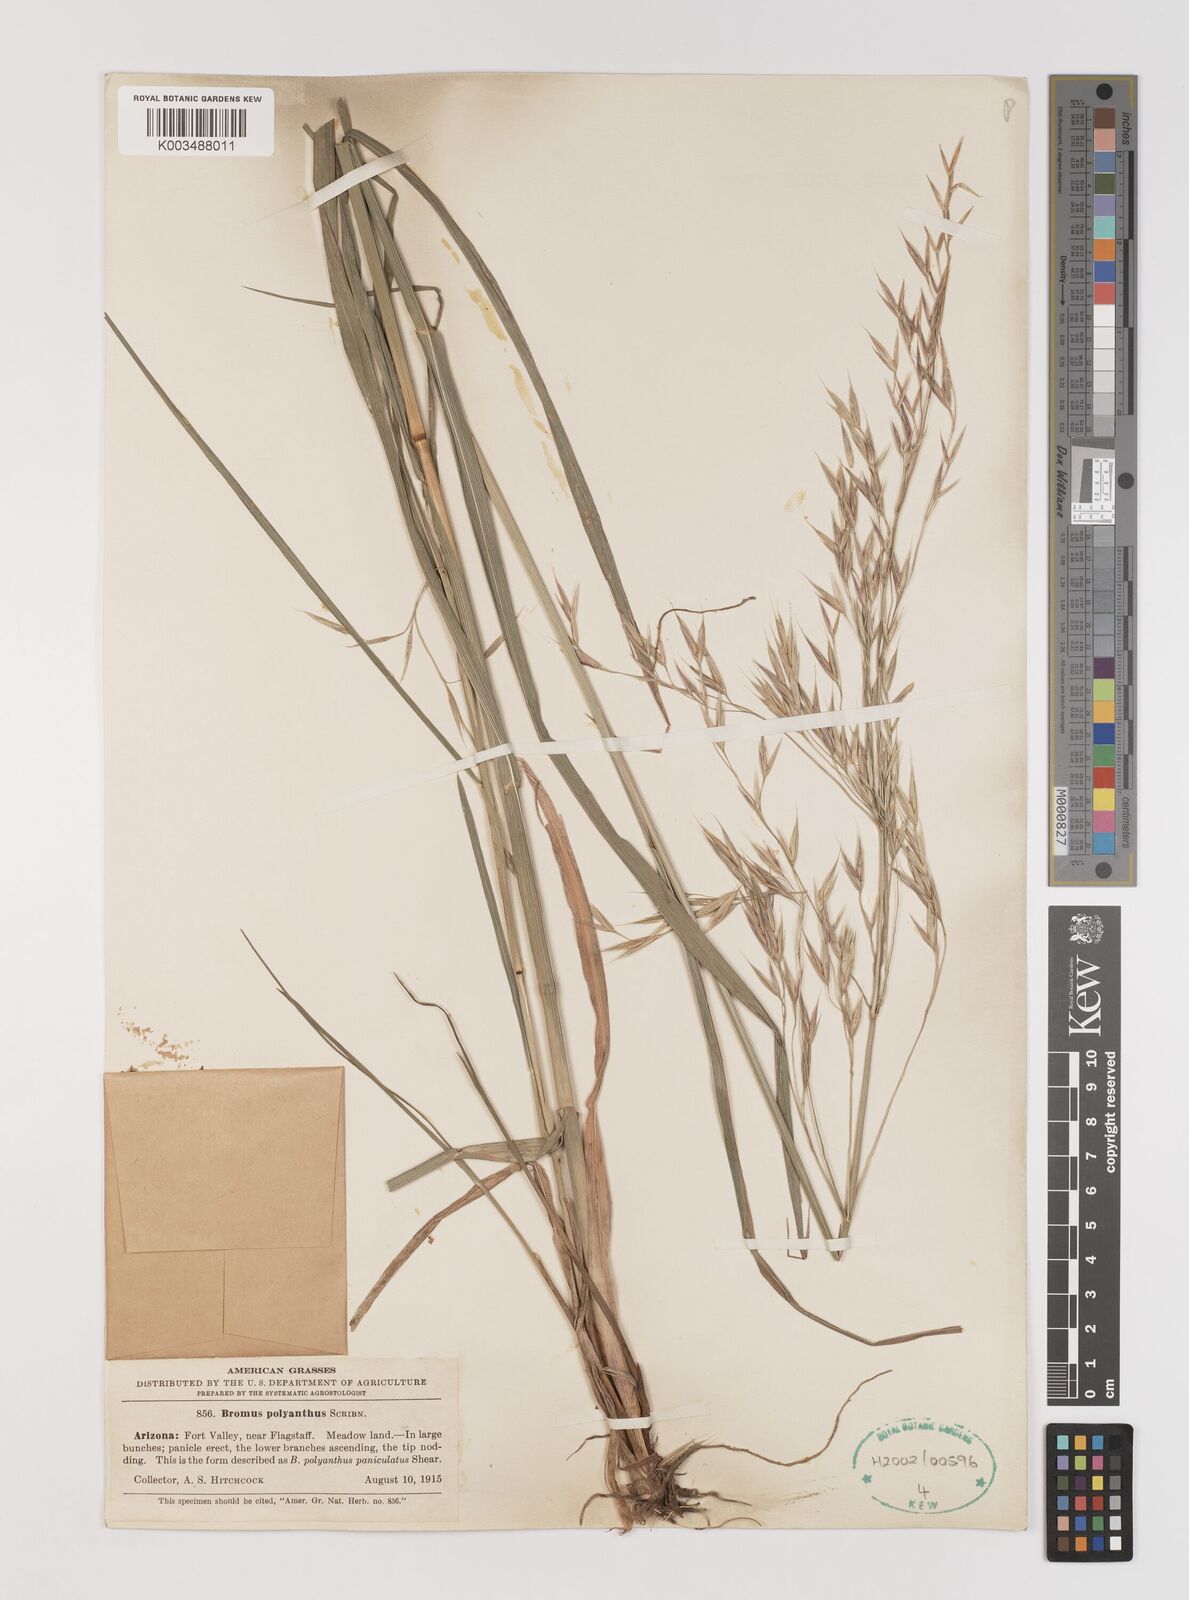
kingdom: Plantae
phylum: Tracheophyta
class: Liliopsida
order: Poales
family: Poaceae
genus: Bromus
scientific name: Bromus polyanthus
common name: Great basin brome
